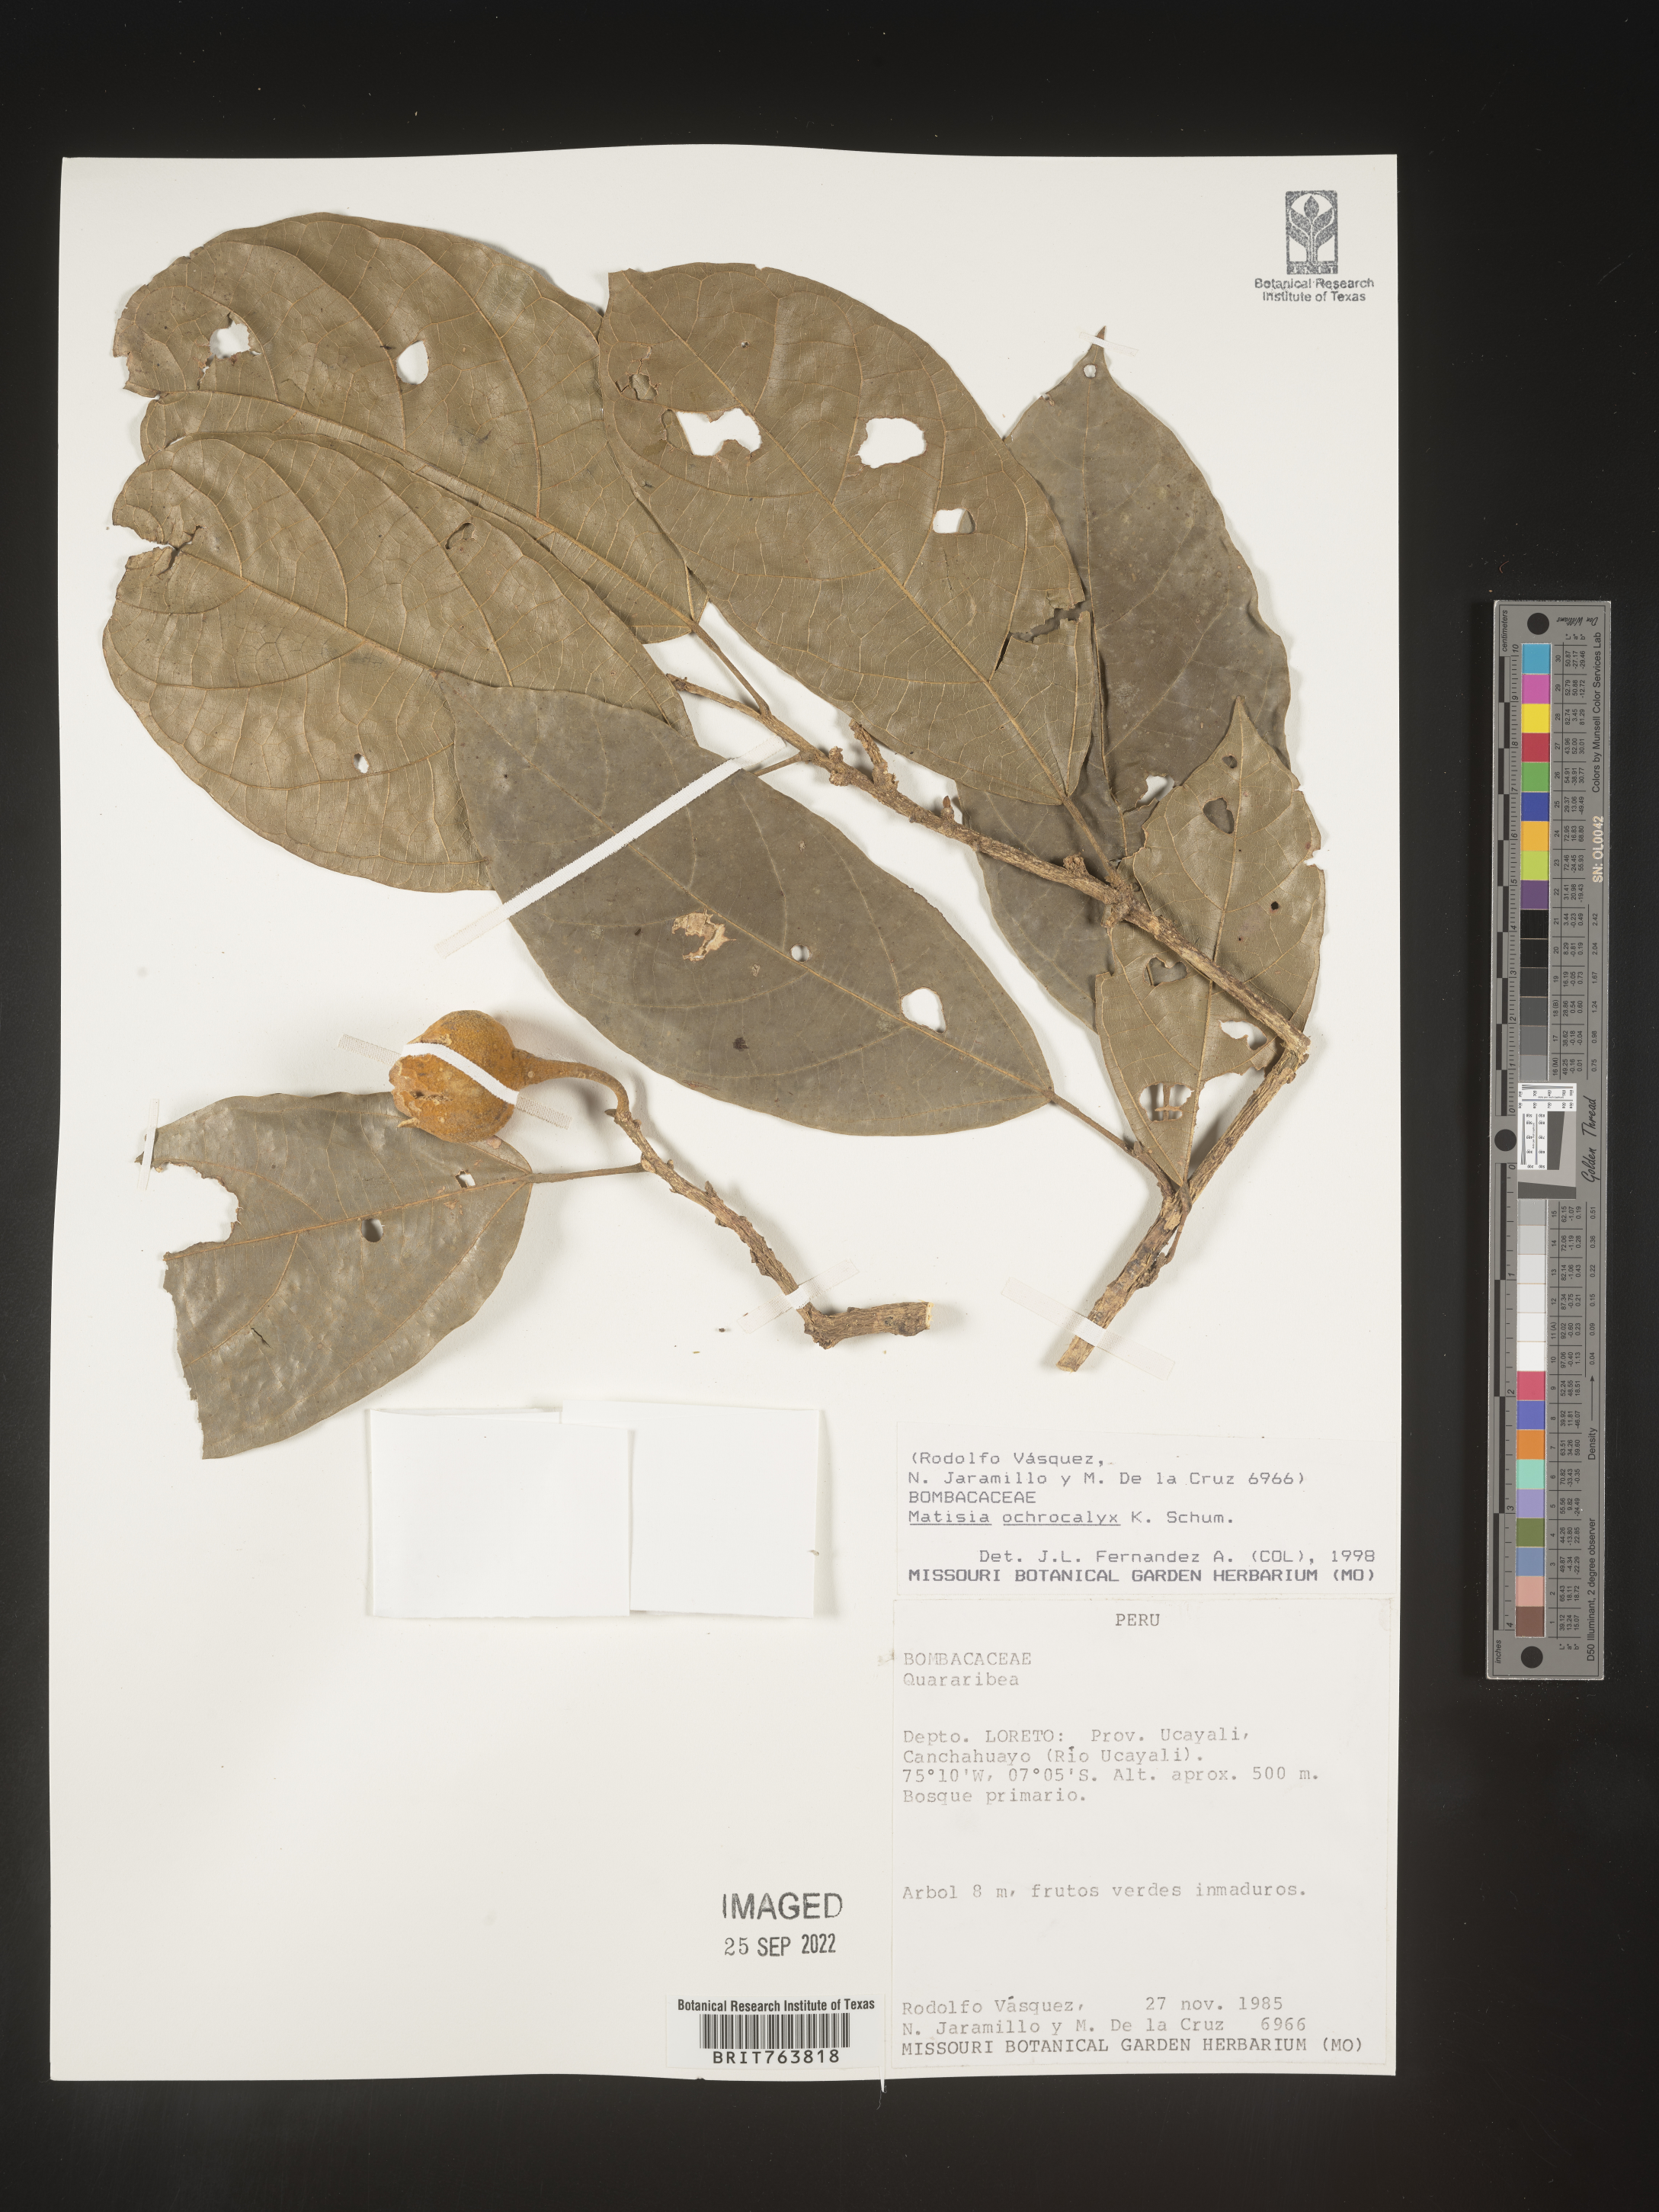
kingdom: Plantae
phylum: Tracheophyta
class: Magnoliopsida
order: Malvales
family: Malvaceae
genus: Matisia
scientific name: Matisia
